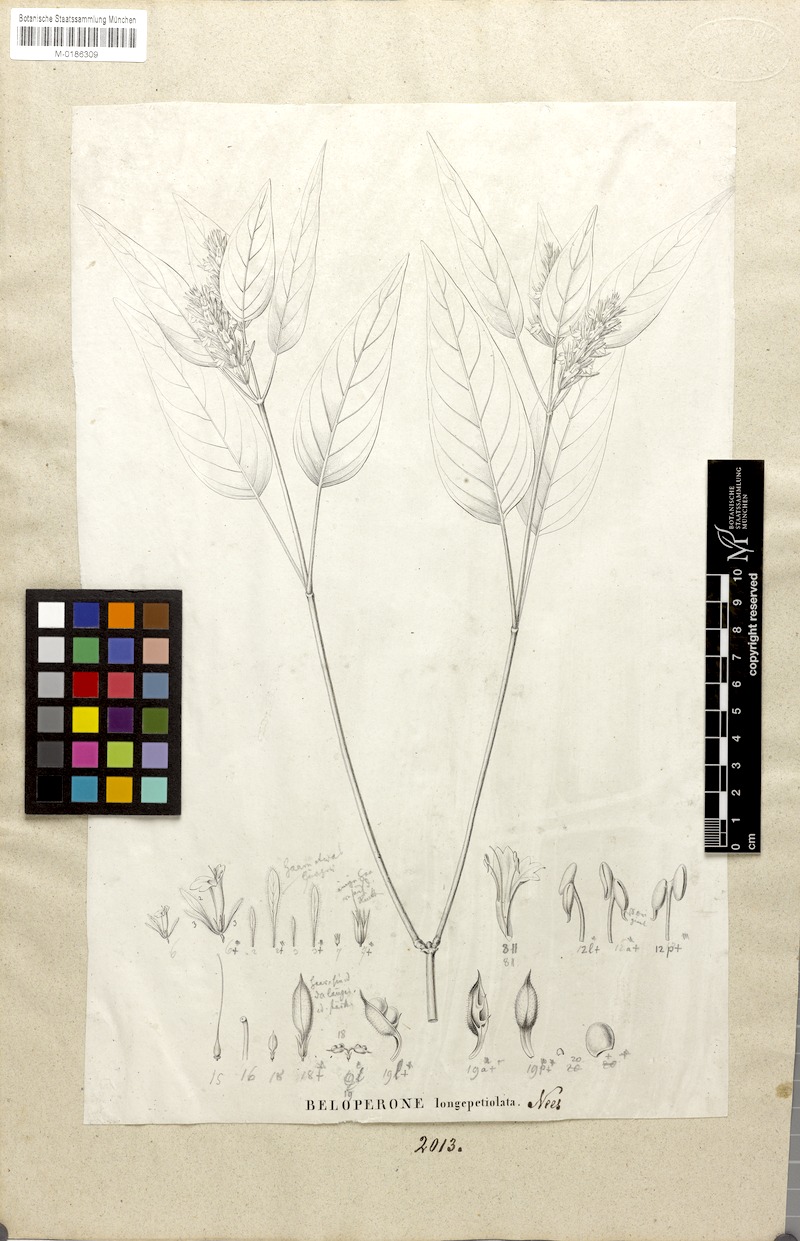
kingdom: Plantae
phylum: Tracheophyta
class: Magnoliopsida
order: Lamiales
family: Acanthaceae
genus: Justicia
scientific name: Justicia Beloperone longipetiolata
